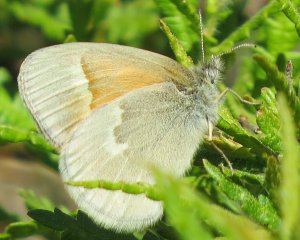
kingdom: Animalia
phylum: Arthropoda
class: Insecta
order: Lepidoptera
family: Nymphalidae
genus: Coenonympha
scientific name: Coenonympha tullia
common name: Large Heath
